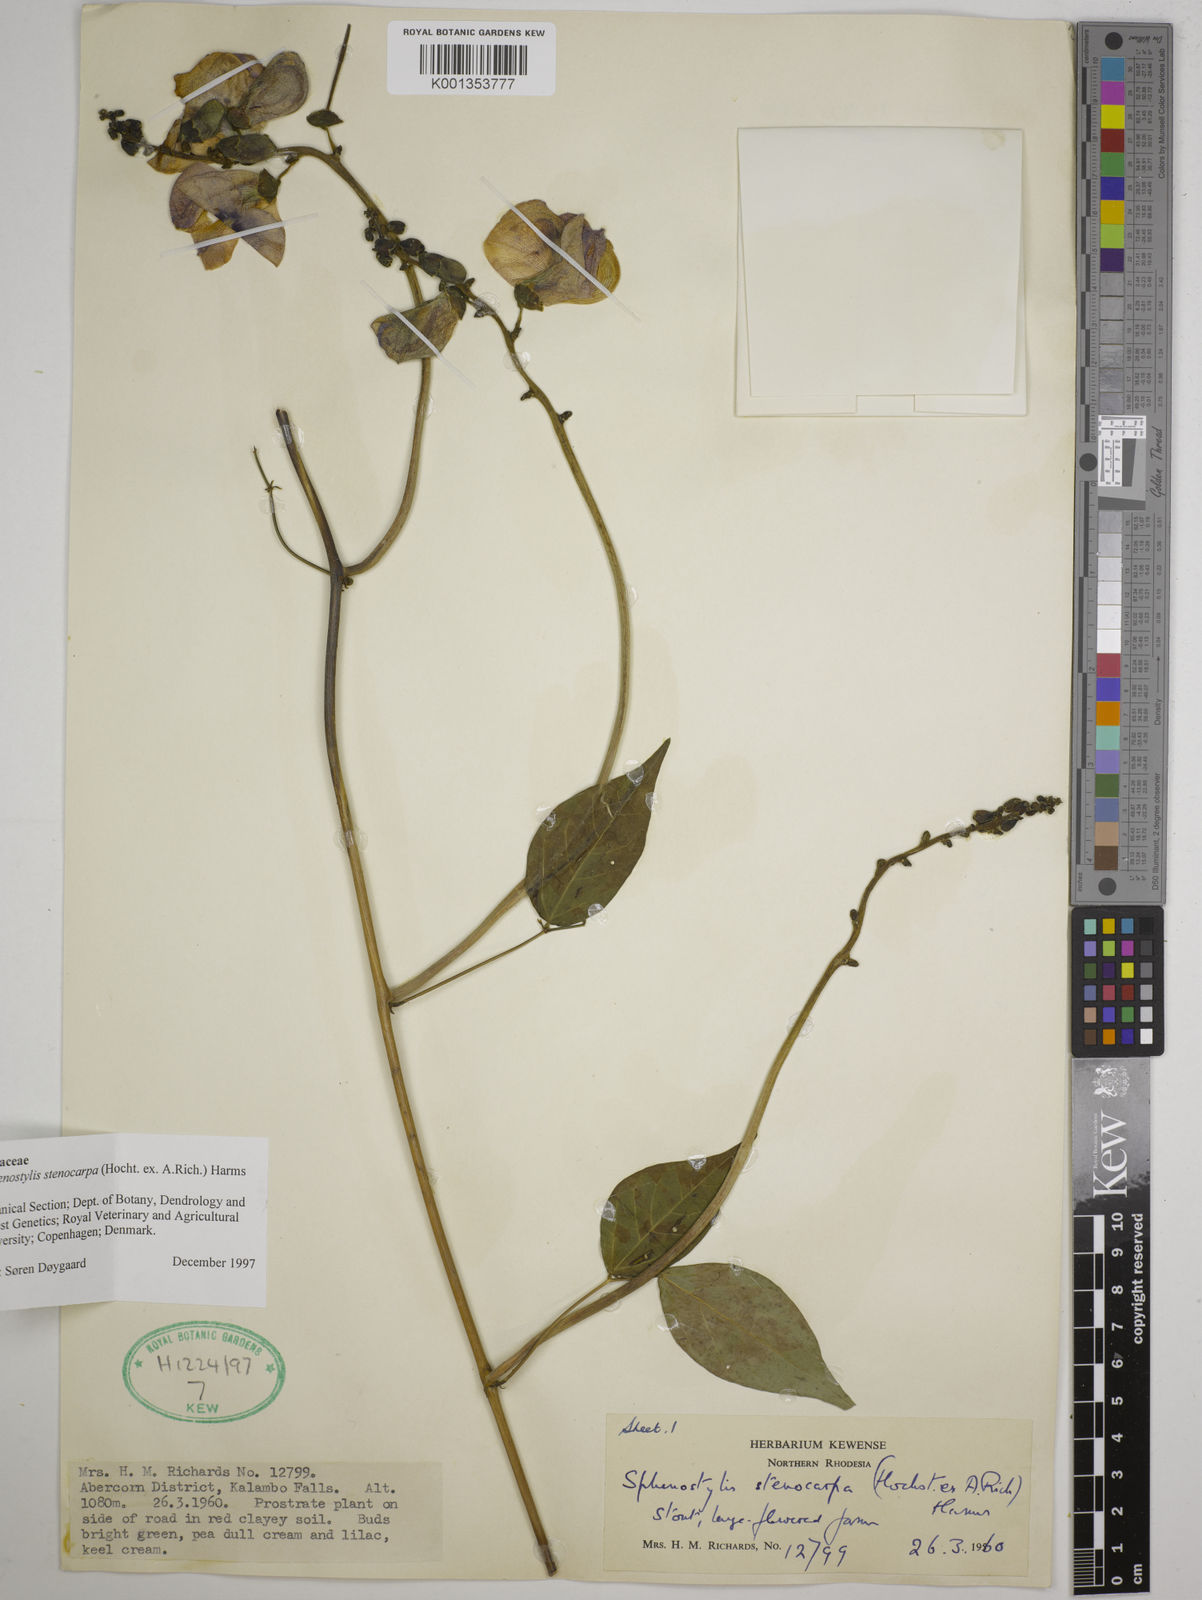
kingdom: Plantae
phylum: Tracheophyta
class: Magnoliopsida
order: Fabales
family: Fabaceae
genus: Sphenostylis
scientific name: Sphenostylis stenocarpa
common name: Yam-pea
